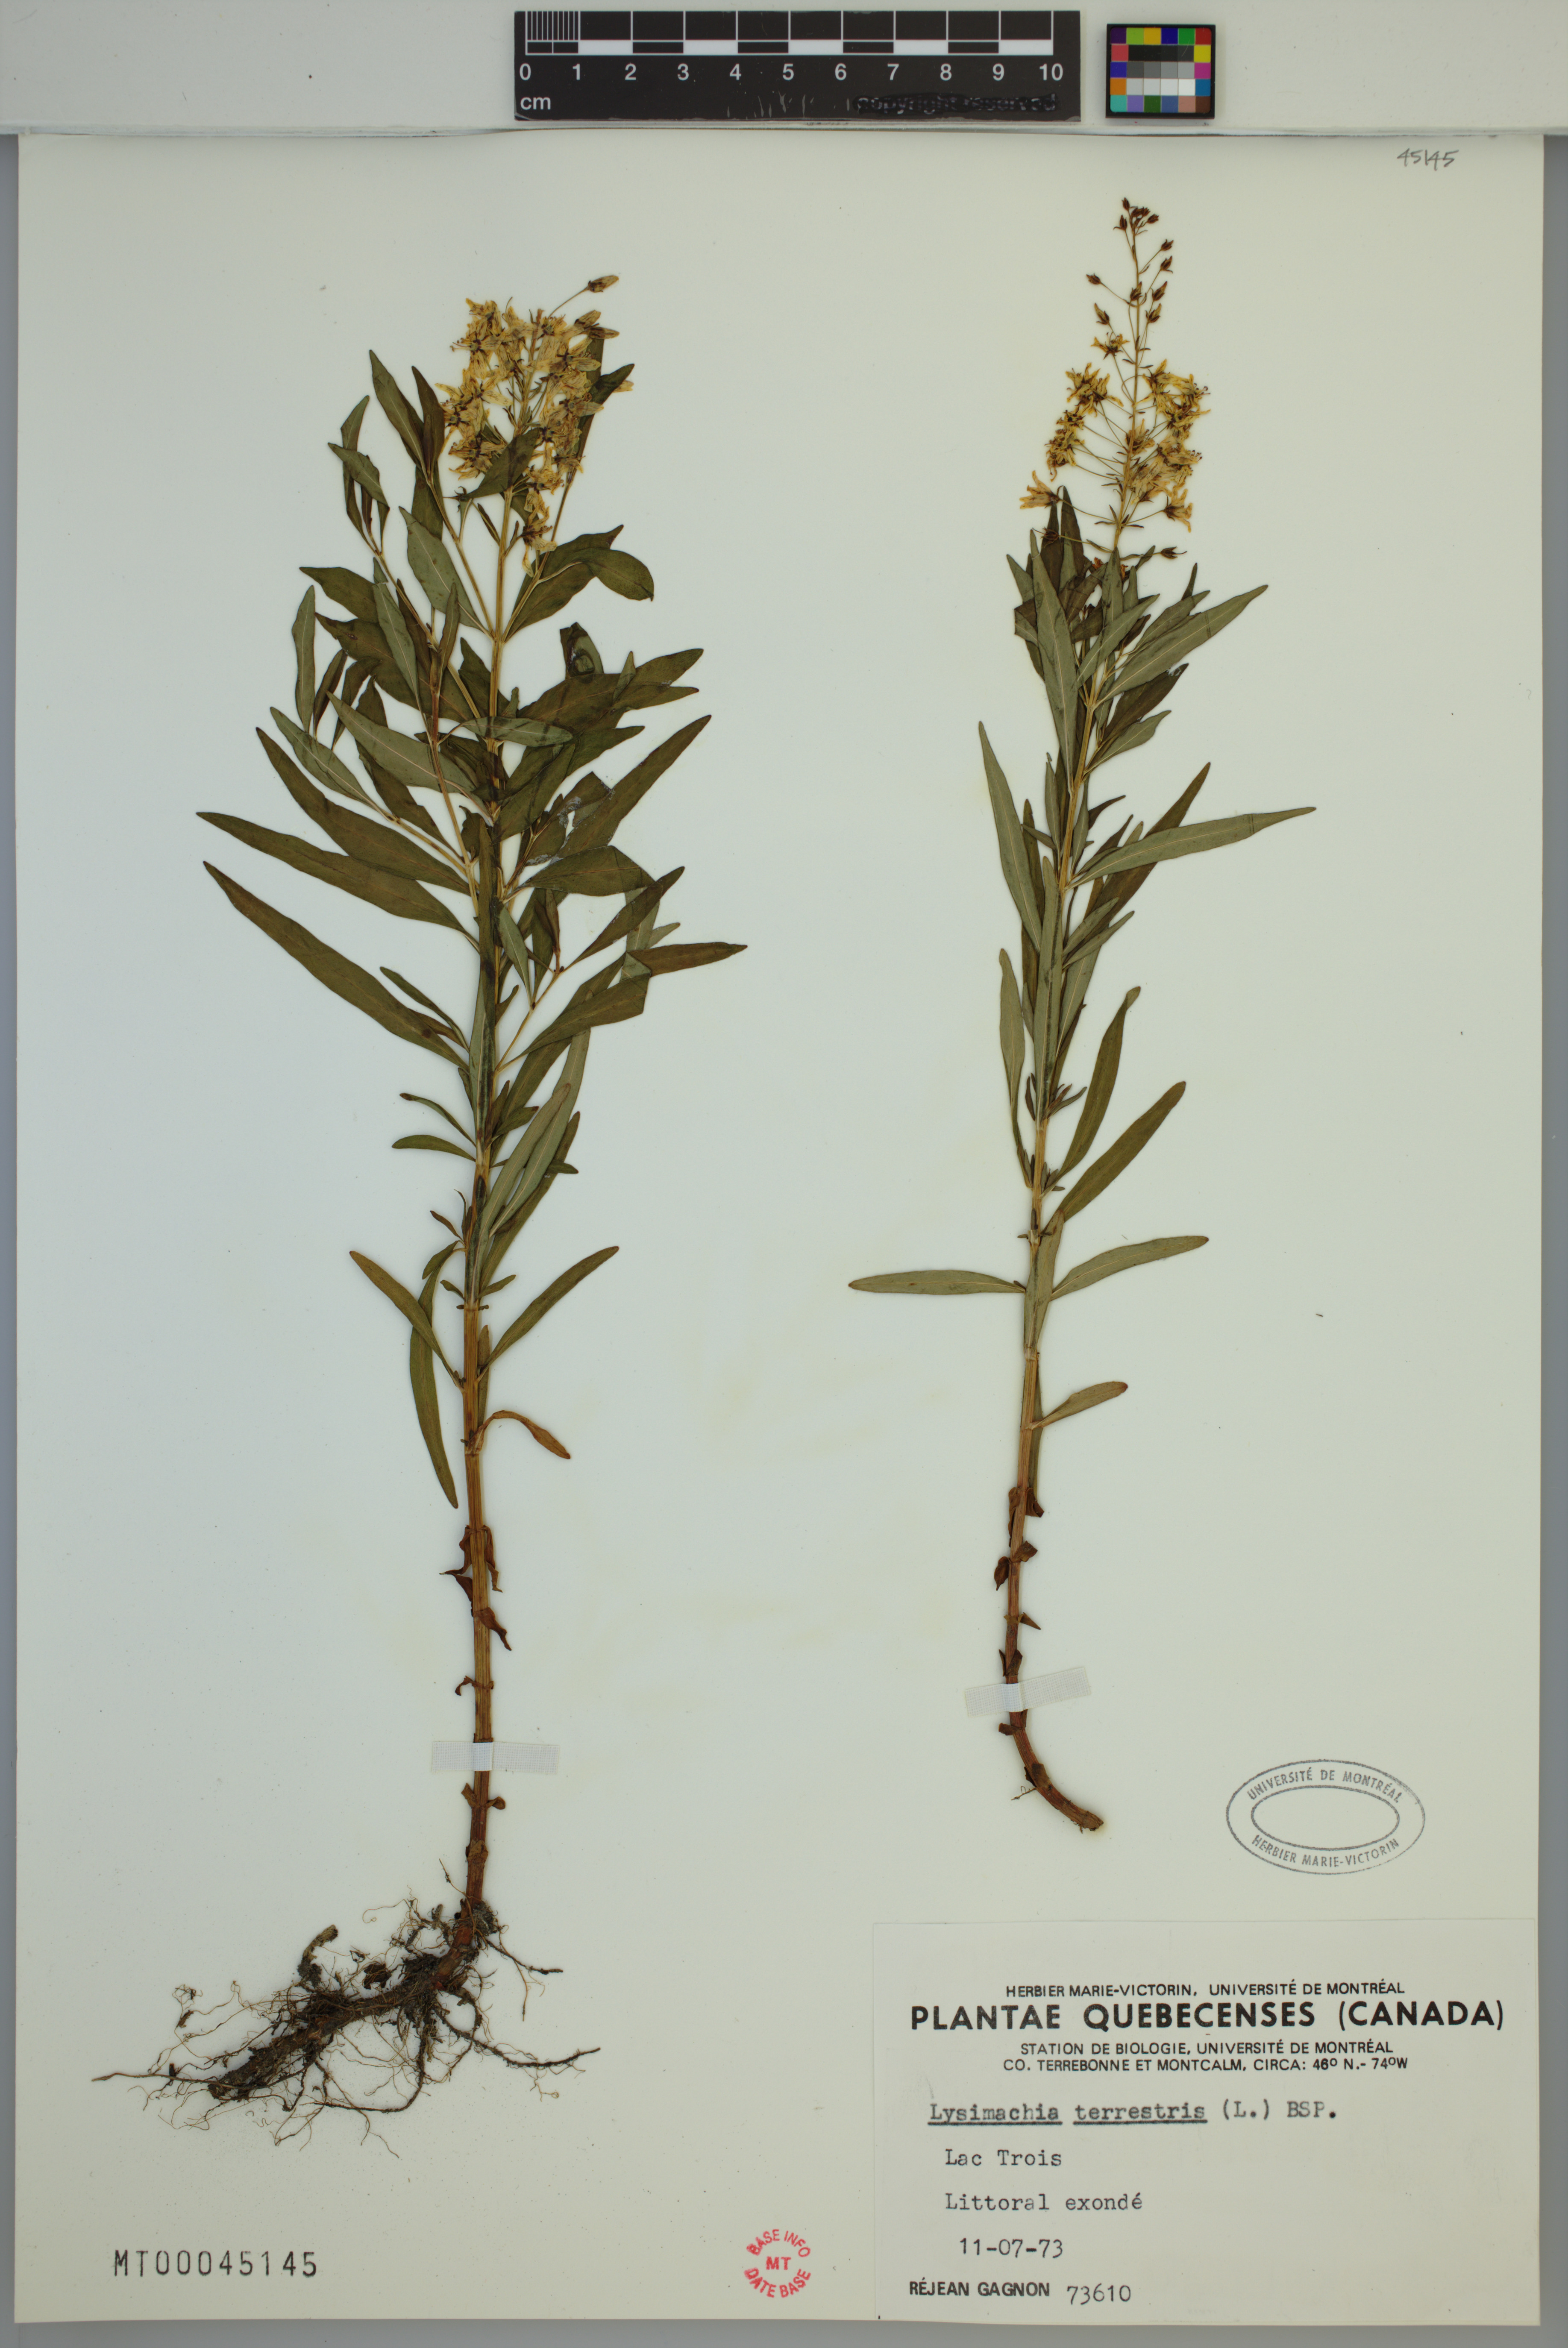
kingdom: Plantae
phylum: Tracheophyta
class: Magnoliopsida
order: Ericales
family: Primulaceae
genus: Lysimachia
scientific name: Lysimachia terrestris
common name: Lake loosestrife
